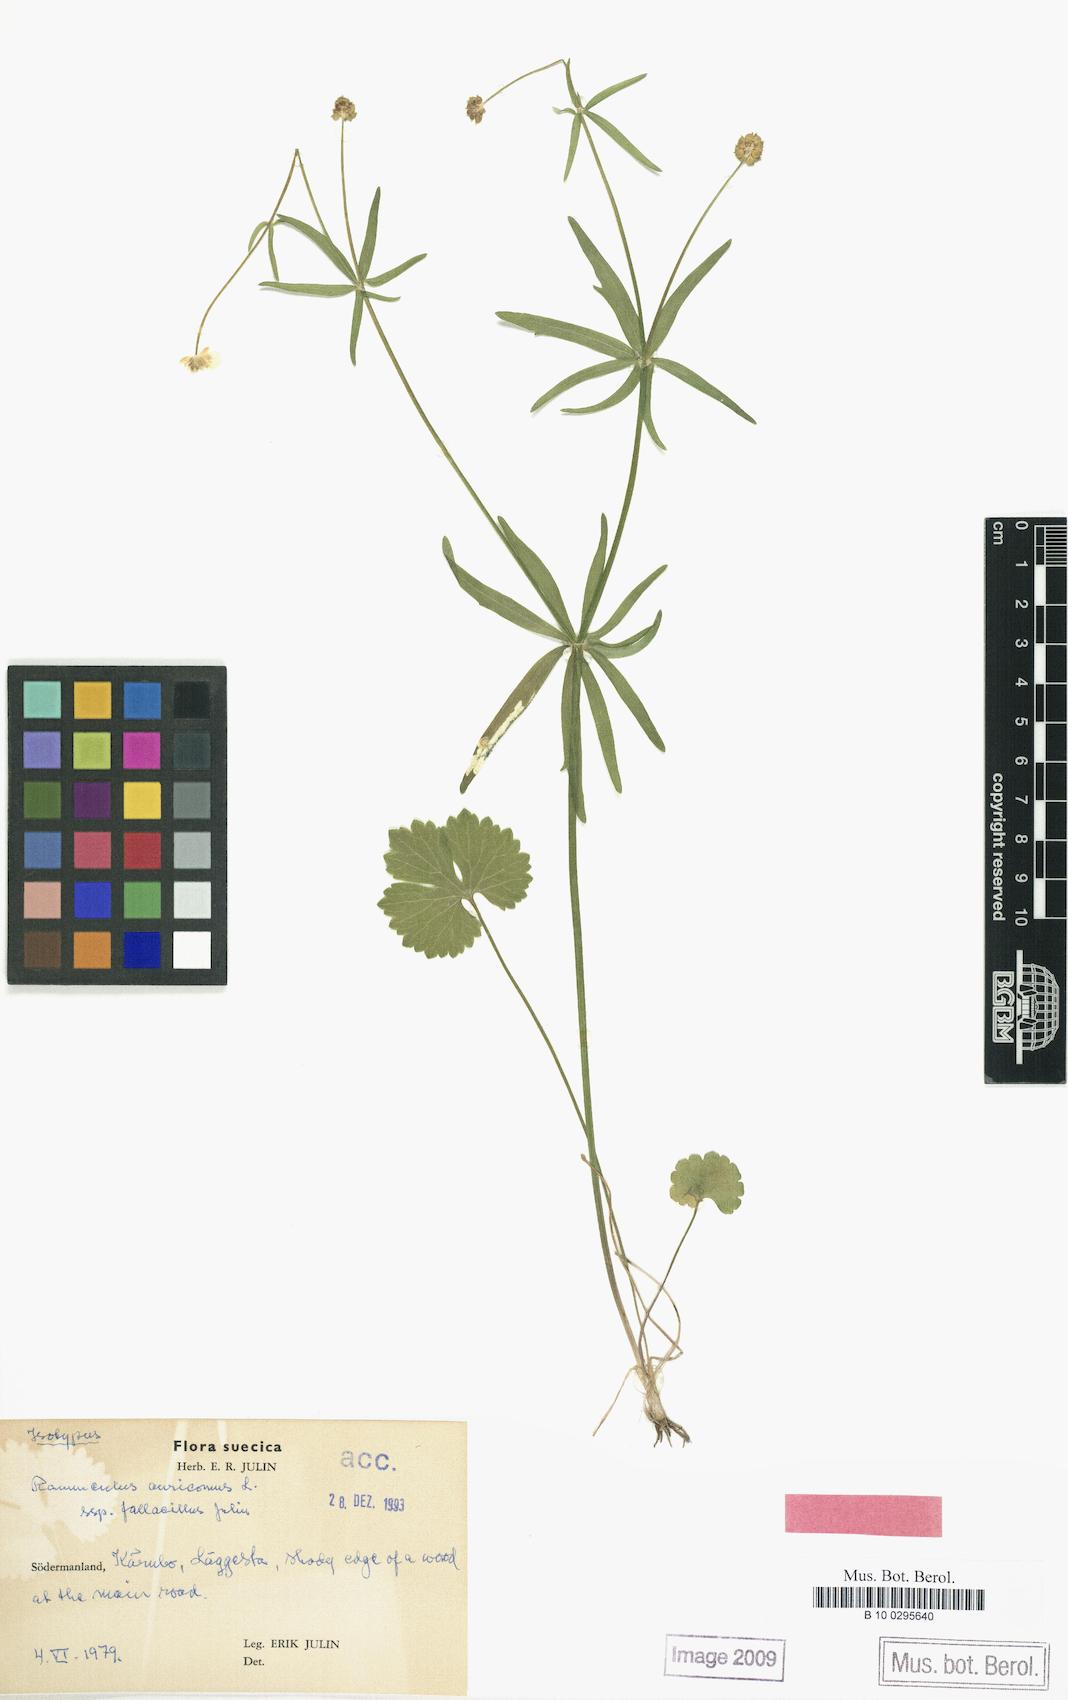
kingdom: Plantae
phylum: Tracheophyta
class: Magnoliopsida
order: Ranunculales
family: Ranunculaceae
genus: Ranunculus
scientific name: Ranunculus fallacillus
